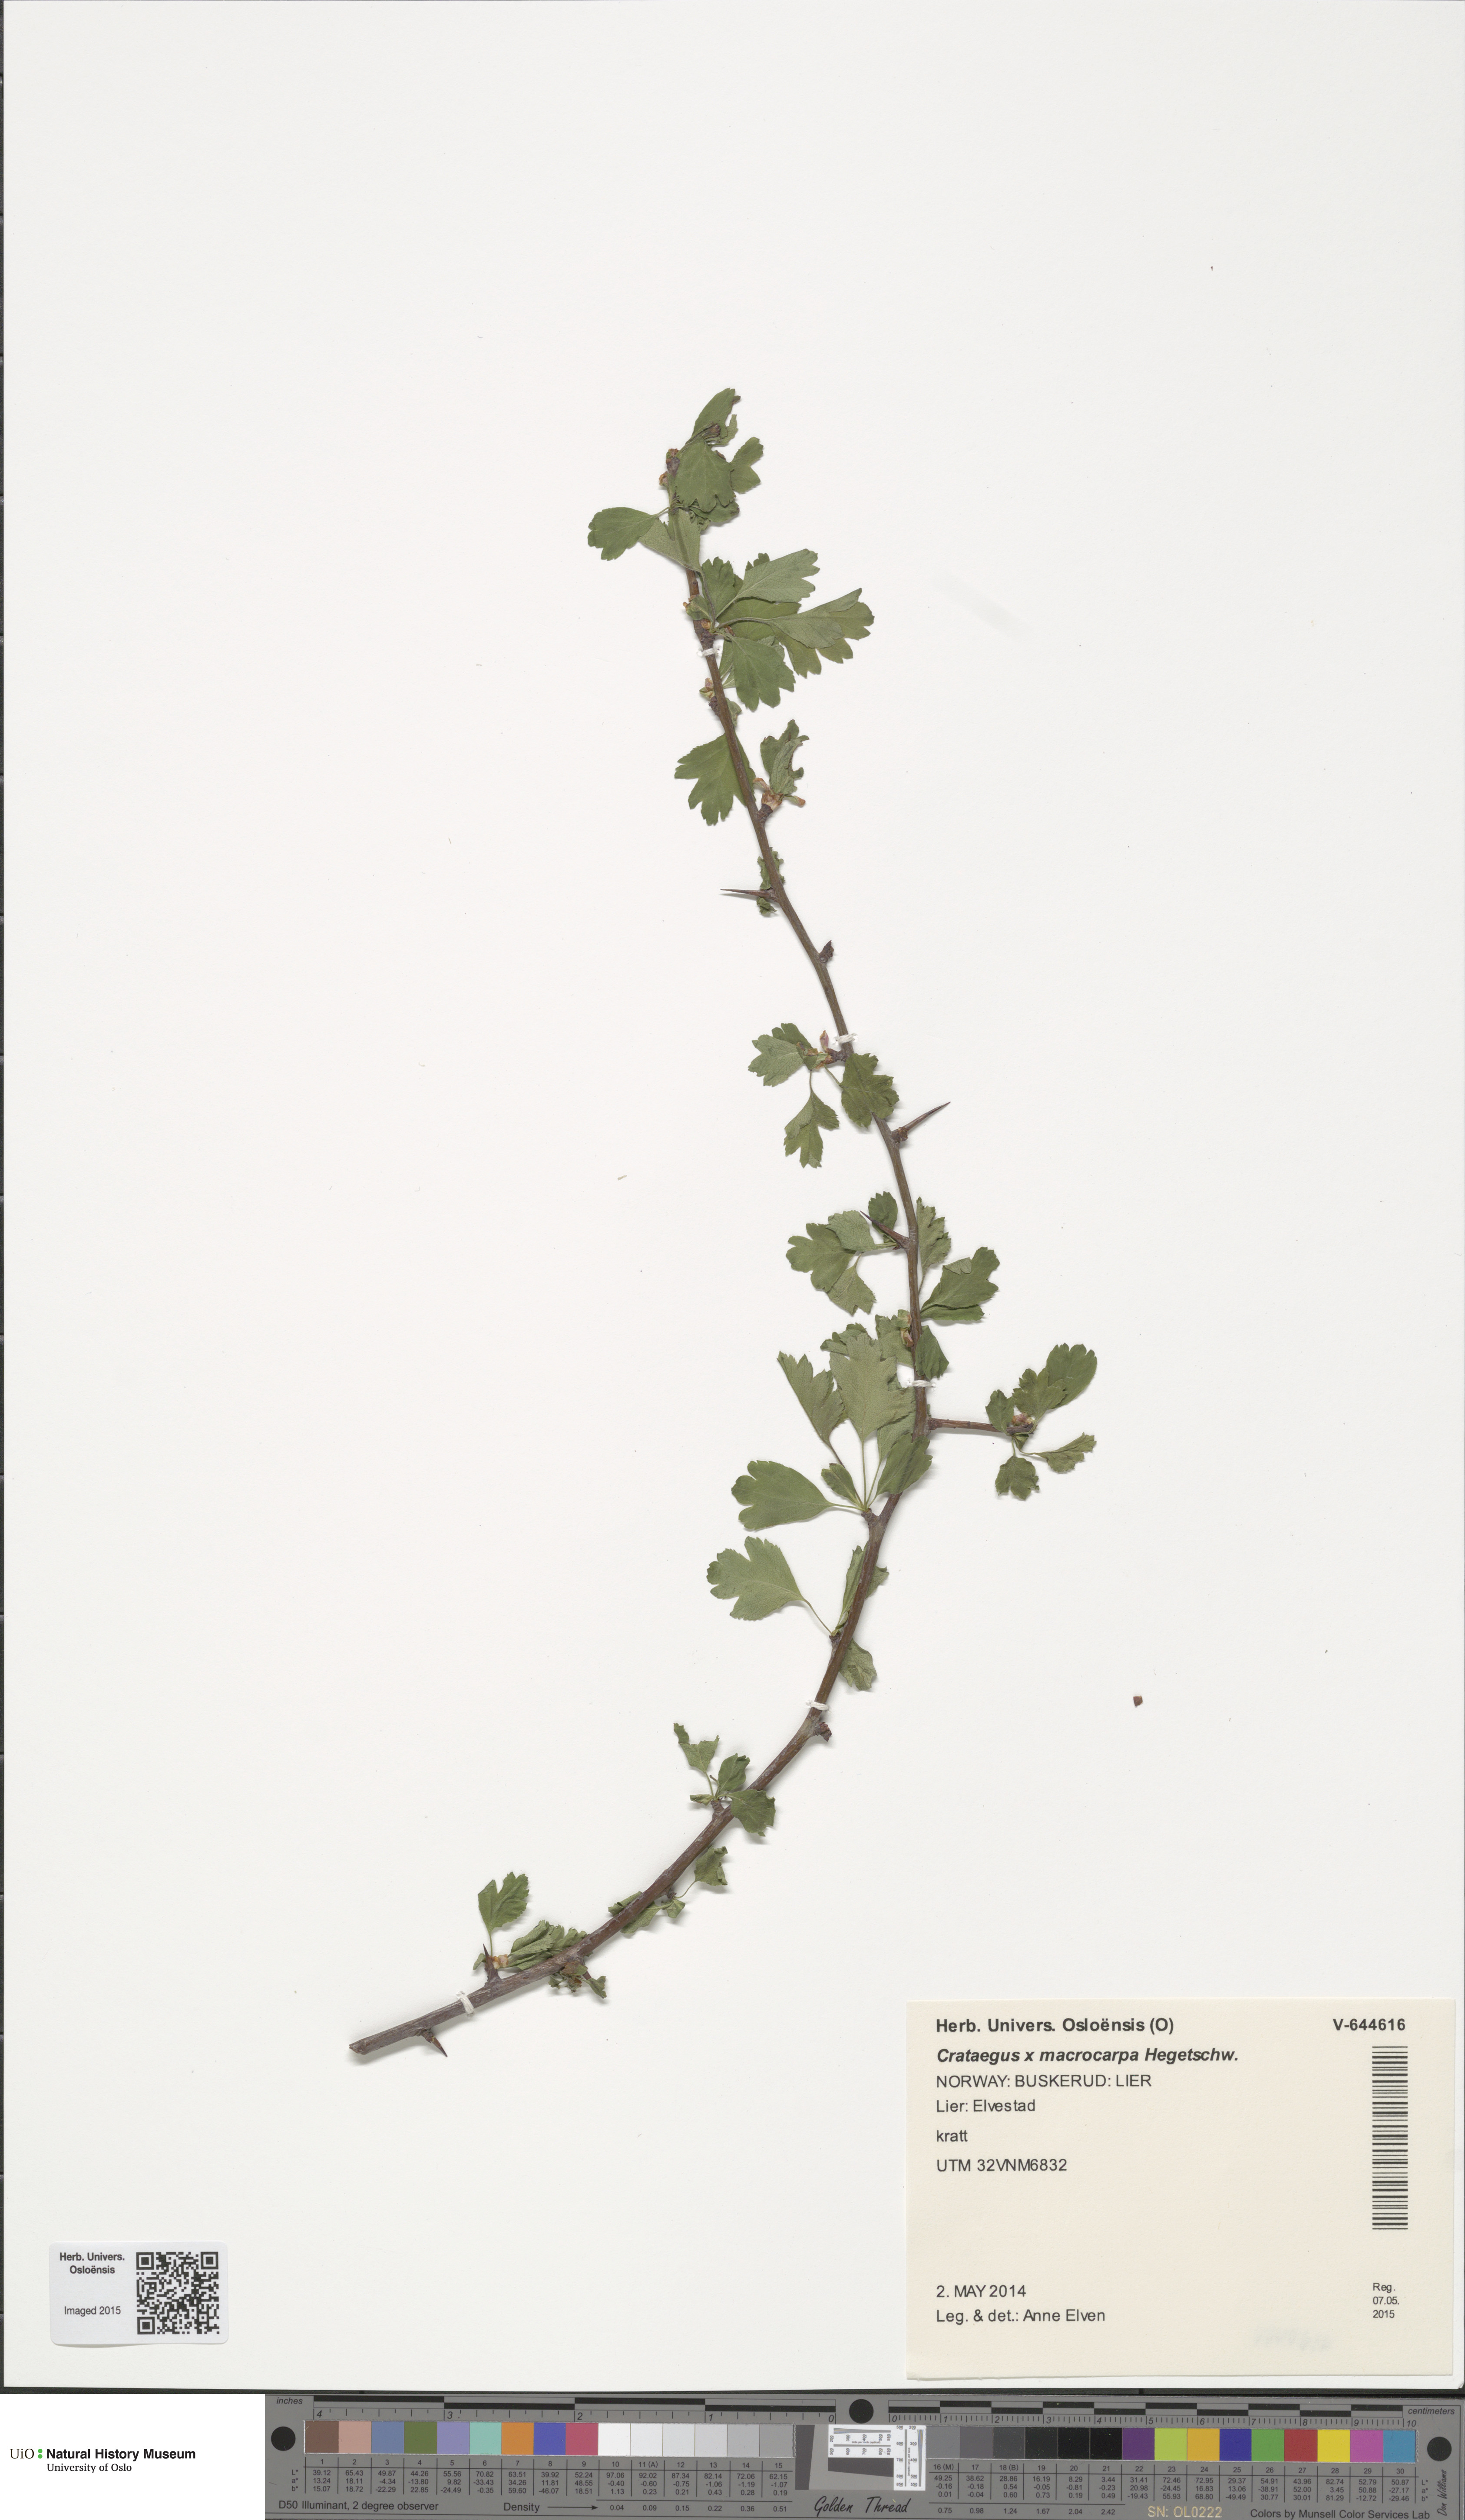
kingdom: Plantae
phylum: Tracheophyta
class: Magnoliopsida
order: Rosales
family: Rosaceae
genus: Crataegus
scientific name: Crataegus macrocarpa
